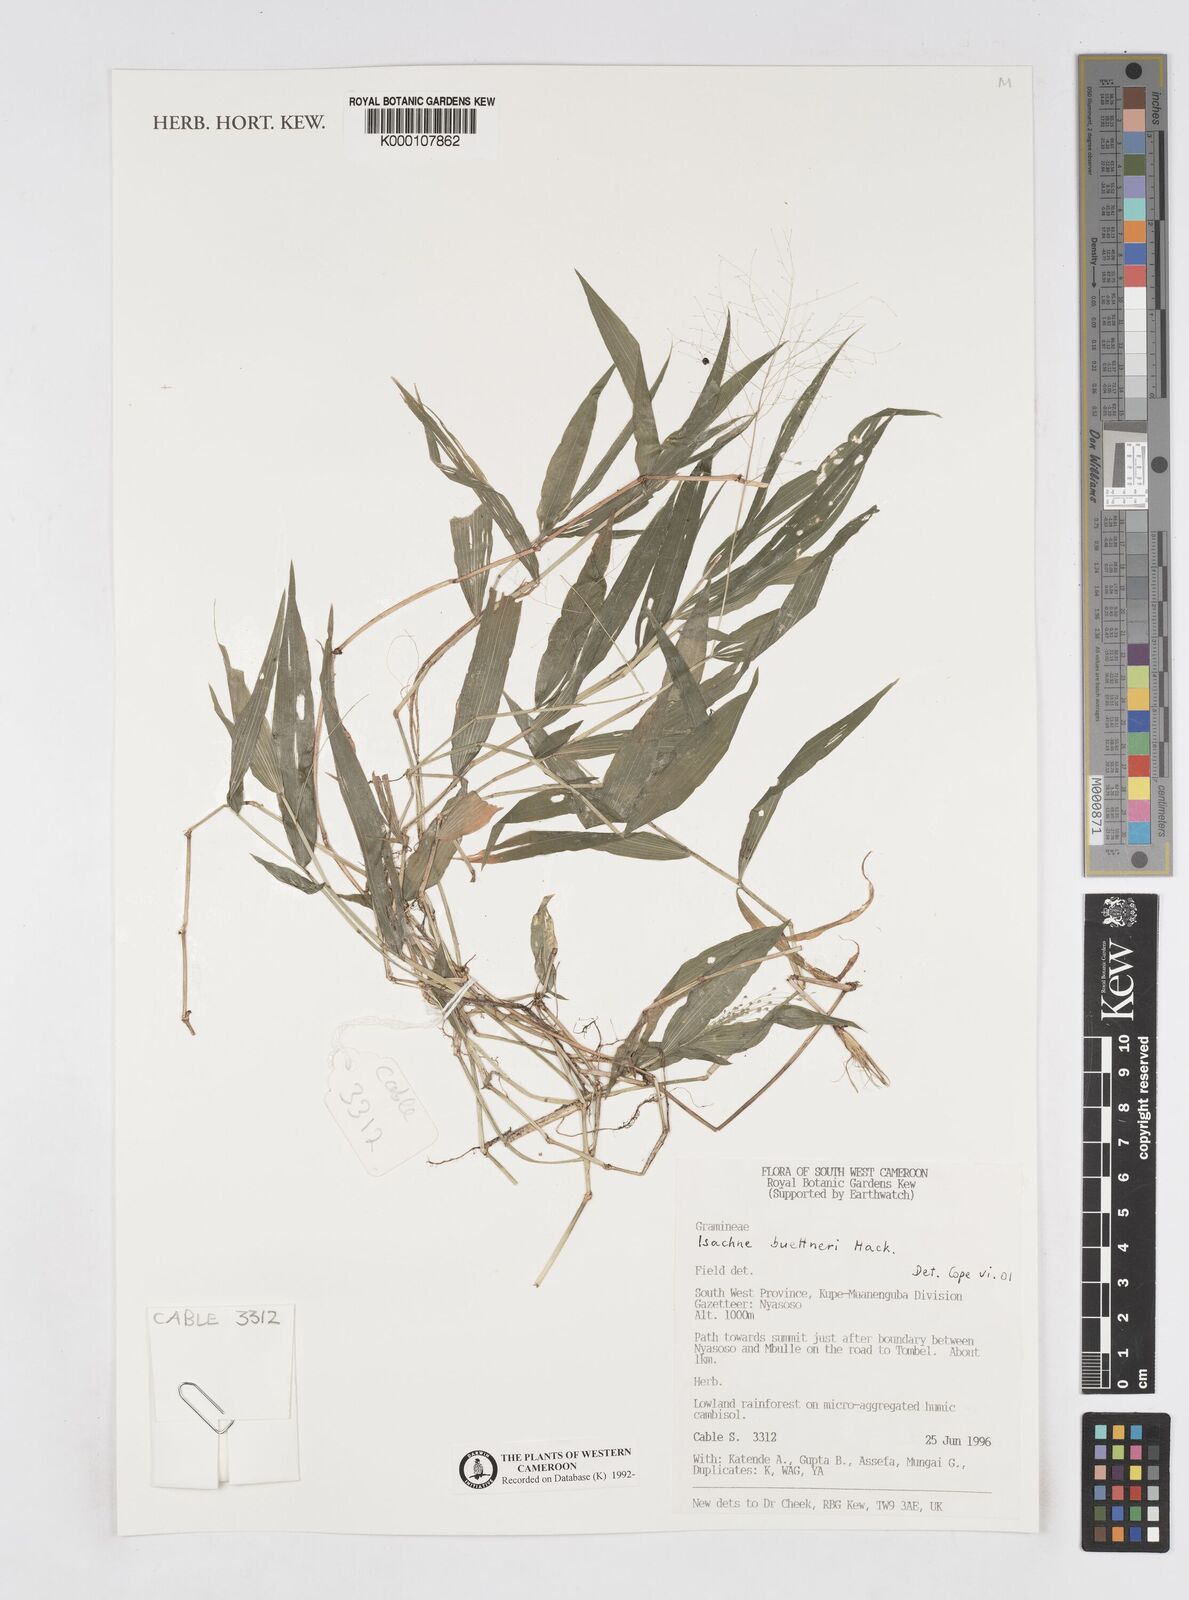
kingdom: Plantae
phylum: Tracheophyta
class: Liliopsida
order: Poales
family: Poaceae
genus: Isachne
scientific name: Isachne albens
